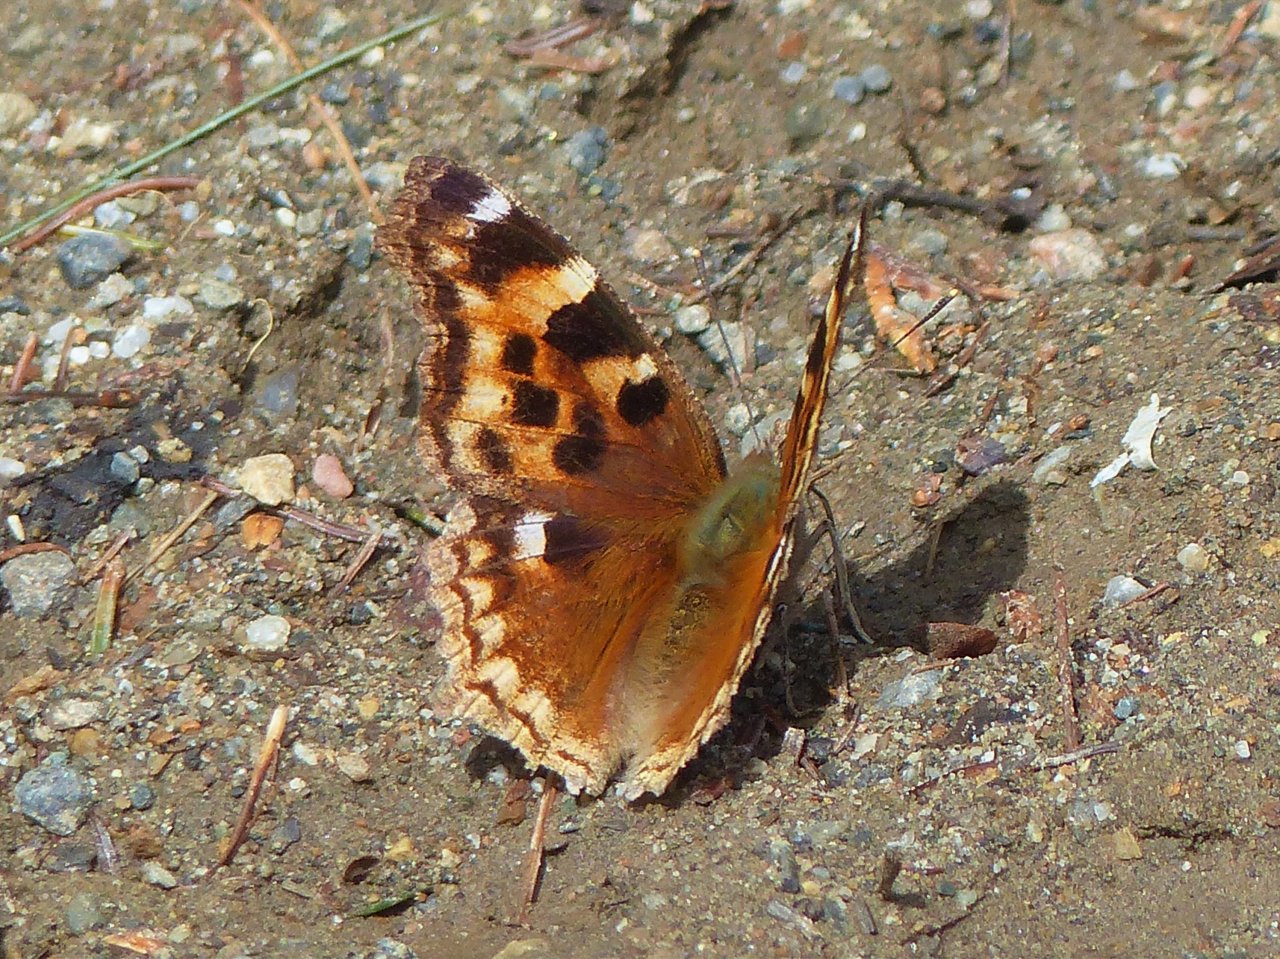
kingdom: Animalia
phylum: Arthropoda
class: Insecta
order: Lepidoptera
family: Nymphalidae
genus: Polygonia
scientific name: Polygonia vaualbum
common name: Compton Tortoiseshell
